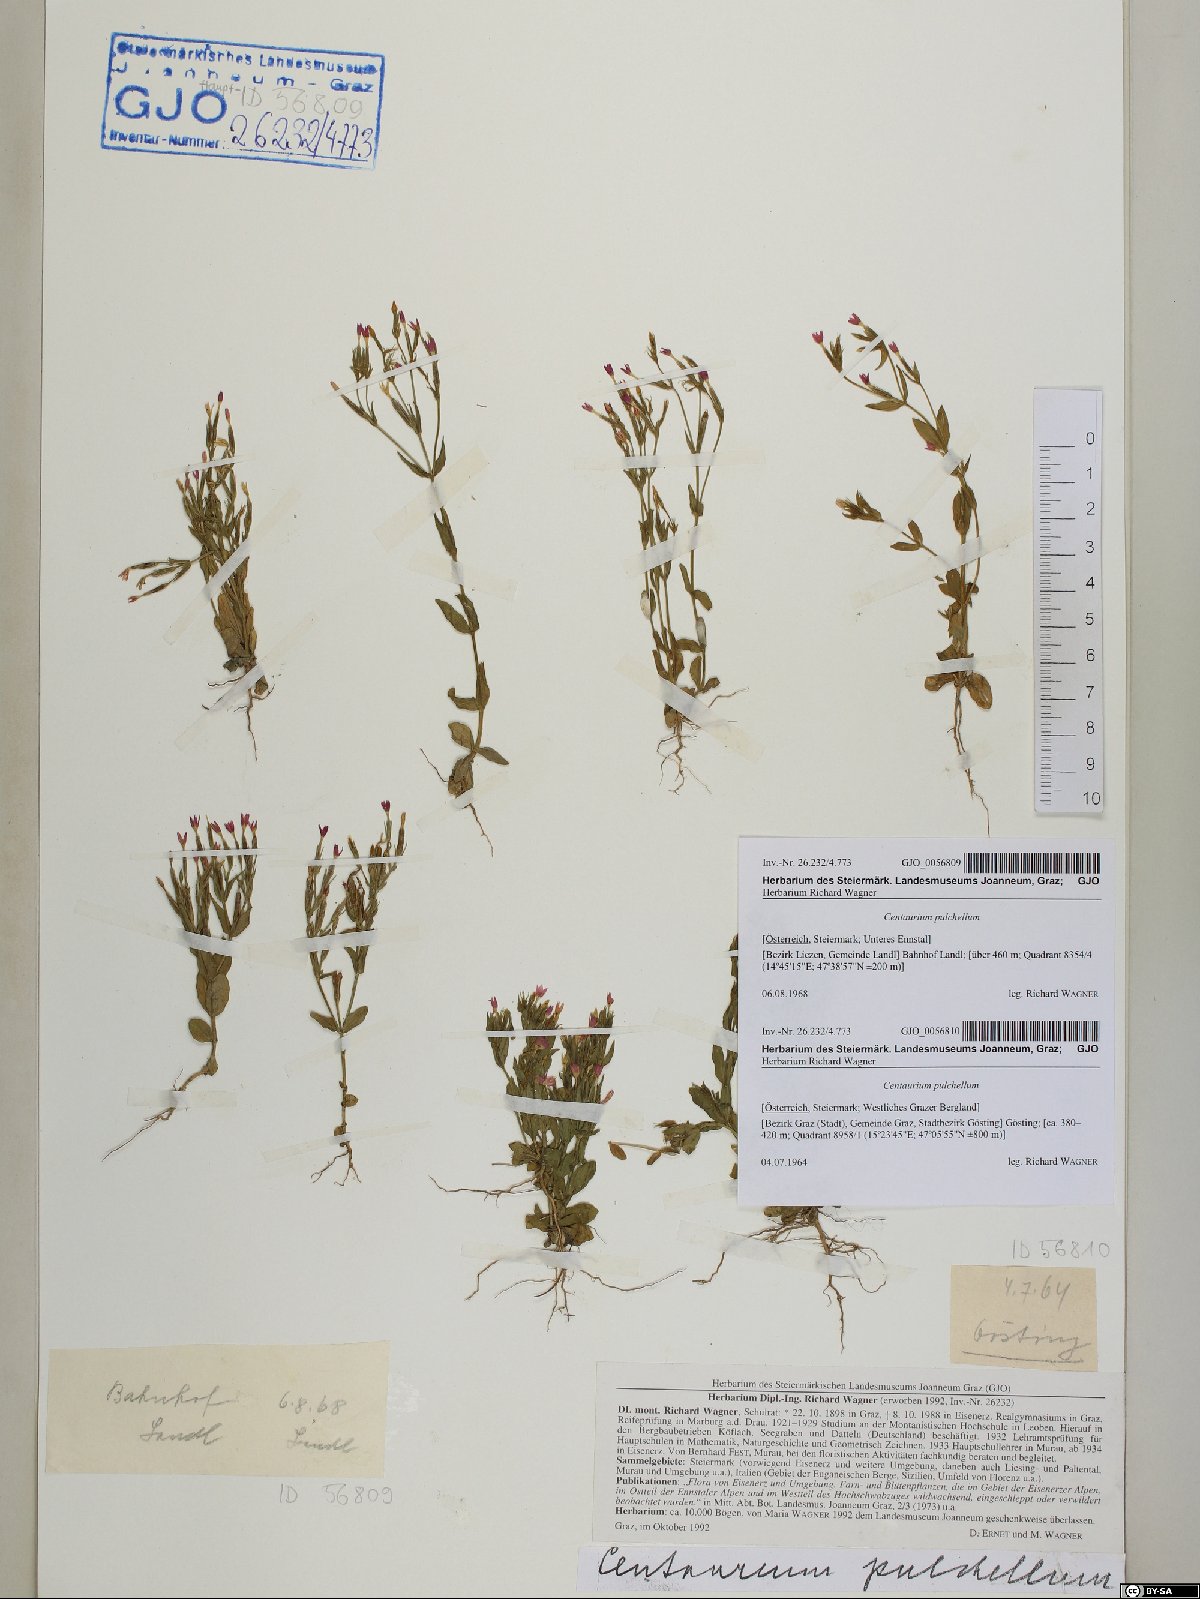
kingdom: Plantae
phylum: Tracheophyta
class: Magnoliopsida
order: Gentianales
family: Gentianaceae
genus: Centaurium
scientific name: Centaurium pulchellum
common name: Lesser centaury
